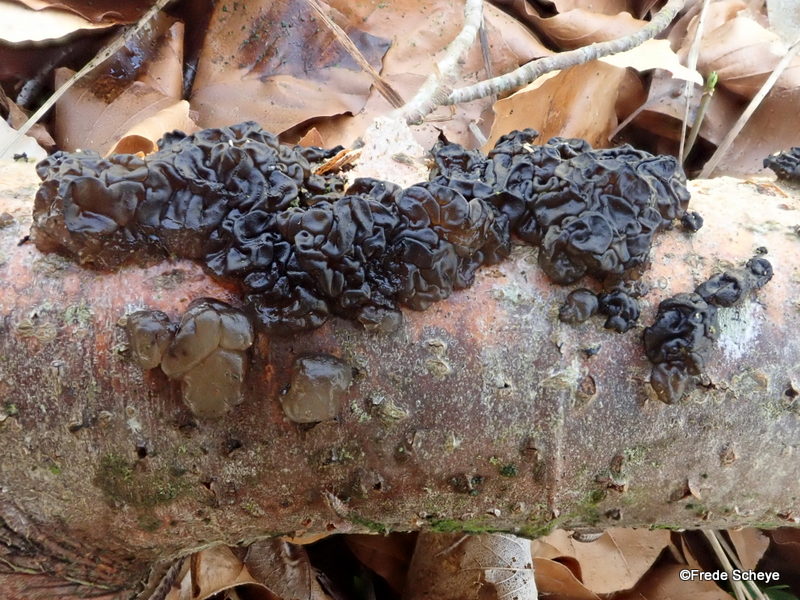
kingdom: Fungi
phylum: Basidiomycota
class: Agaricomycetes
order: Auriculariales
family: Auriculariaceae
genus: Exidia
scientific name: Exidia nigricans
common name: almindelig bævretop
